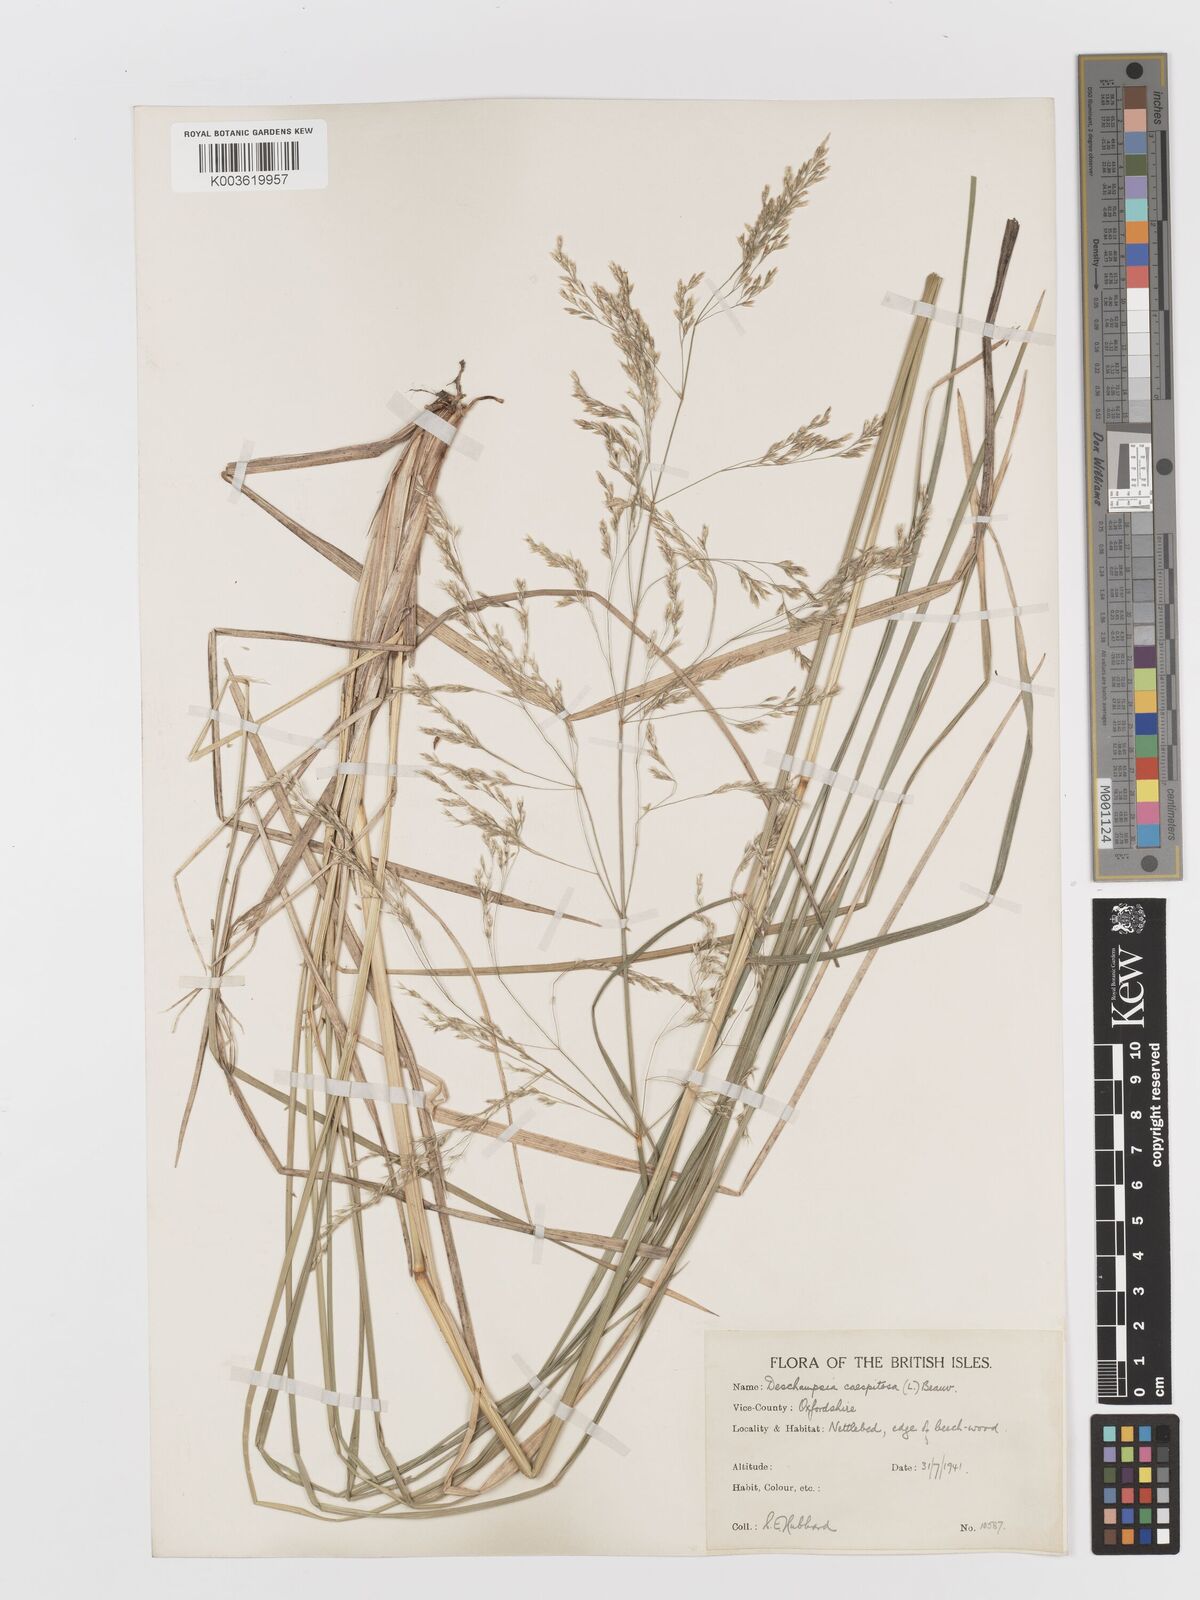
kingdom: Plantae
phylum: Tracheophyta
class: Liliopsida
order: Poales
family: Poaceae
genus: Deschampsia
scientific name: Deschampsia cespitosa
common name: Tufted hair-grass
